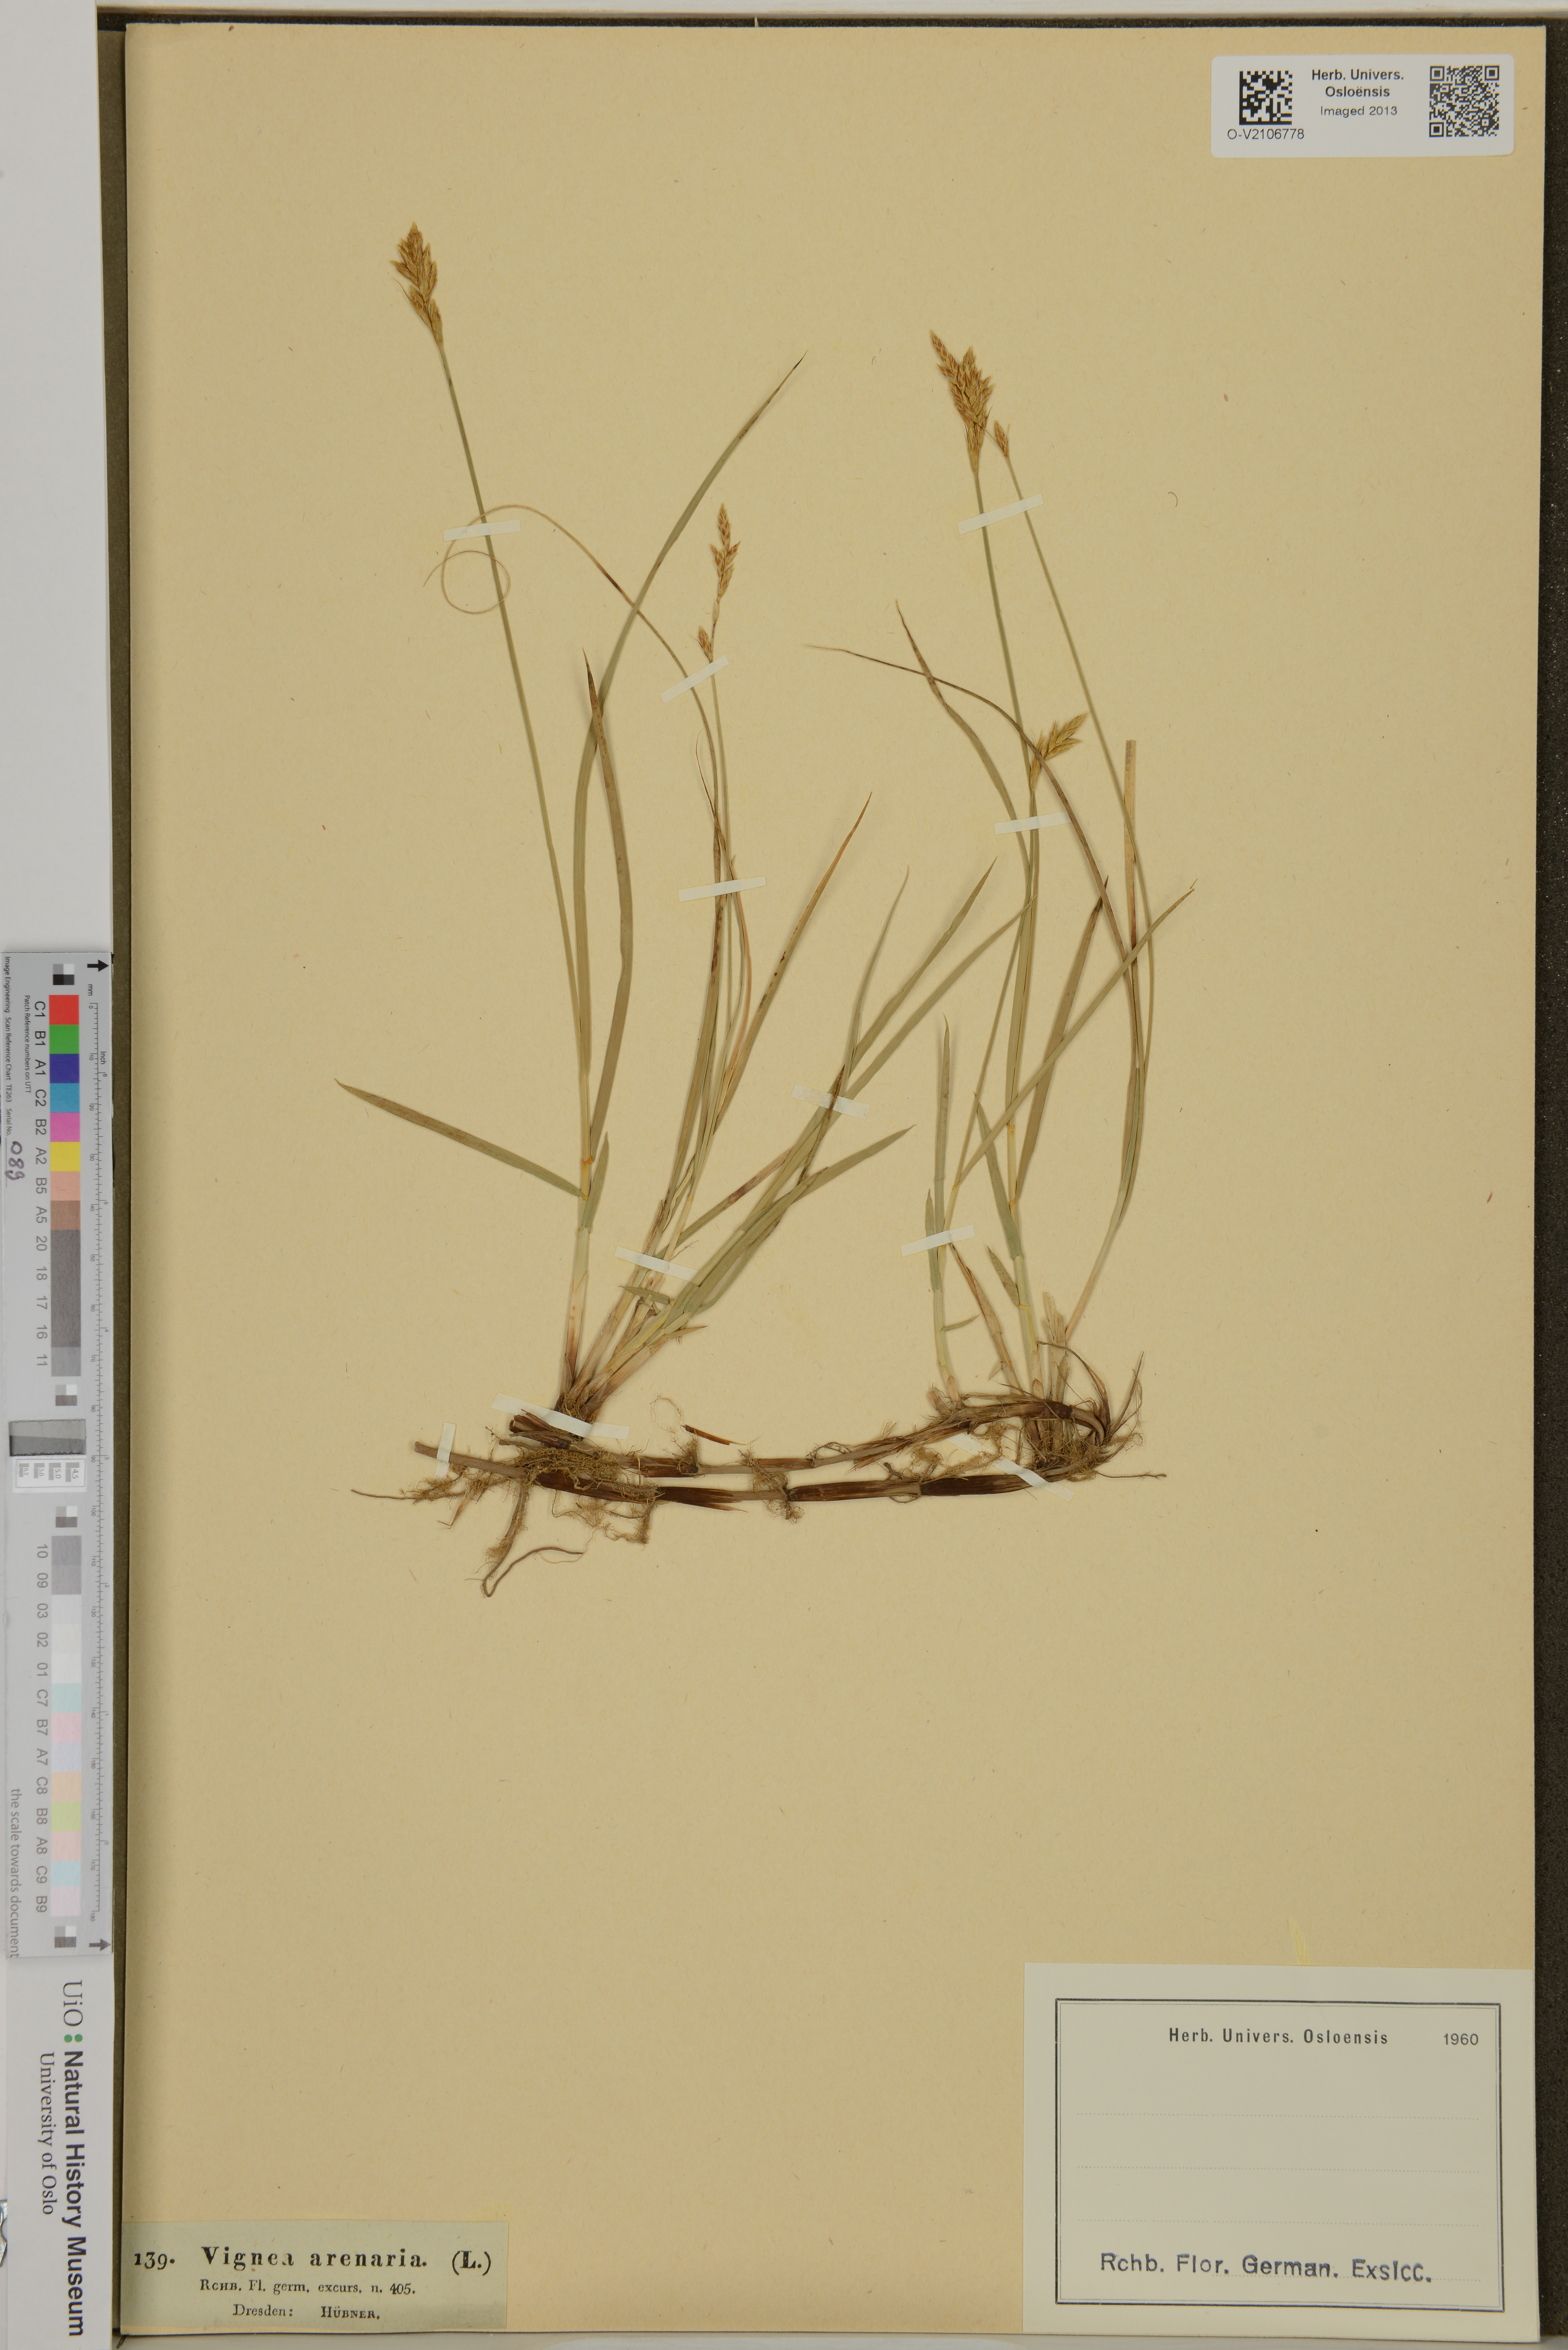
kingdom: Plantae
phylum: Tracheophyta
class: Liliopsida
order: Poales
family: Cyperaceae
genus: Carex
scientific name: Carex arenaria
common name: Sand sedge
